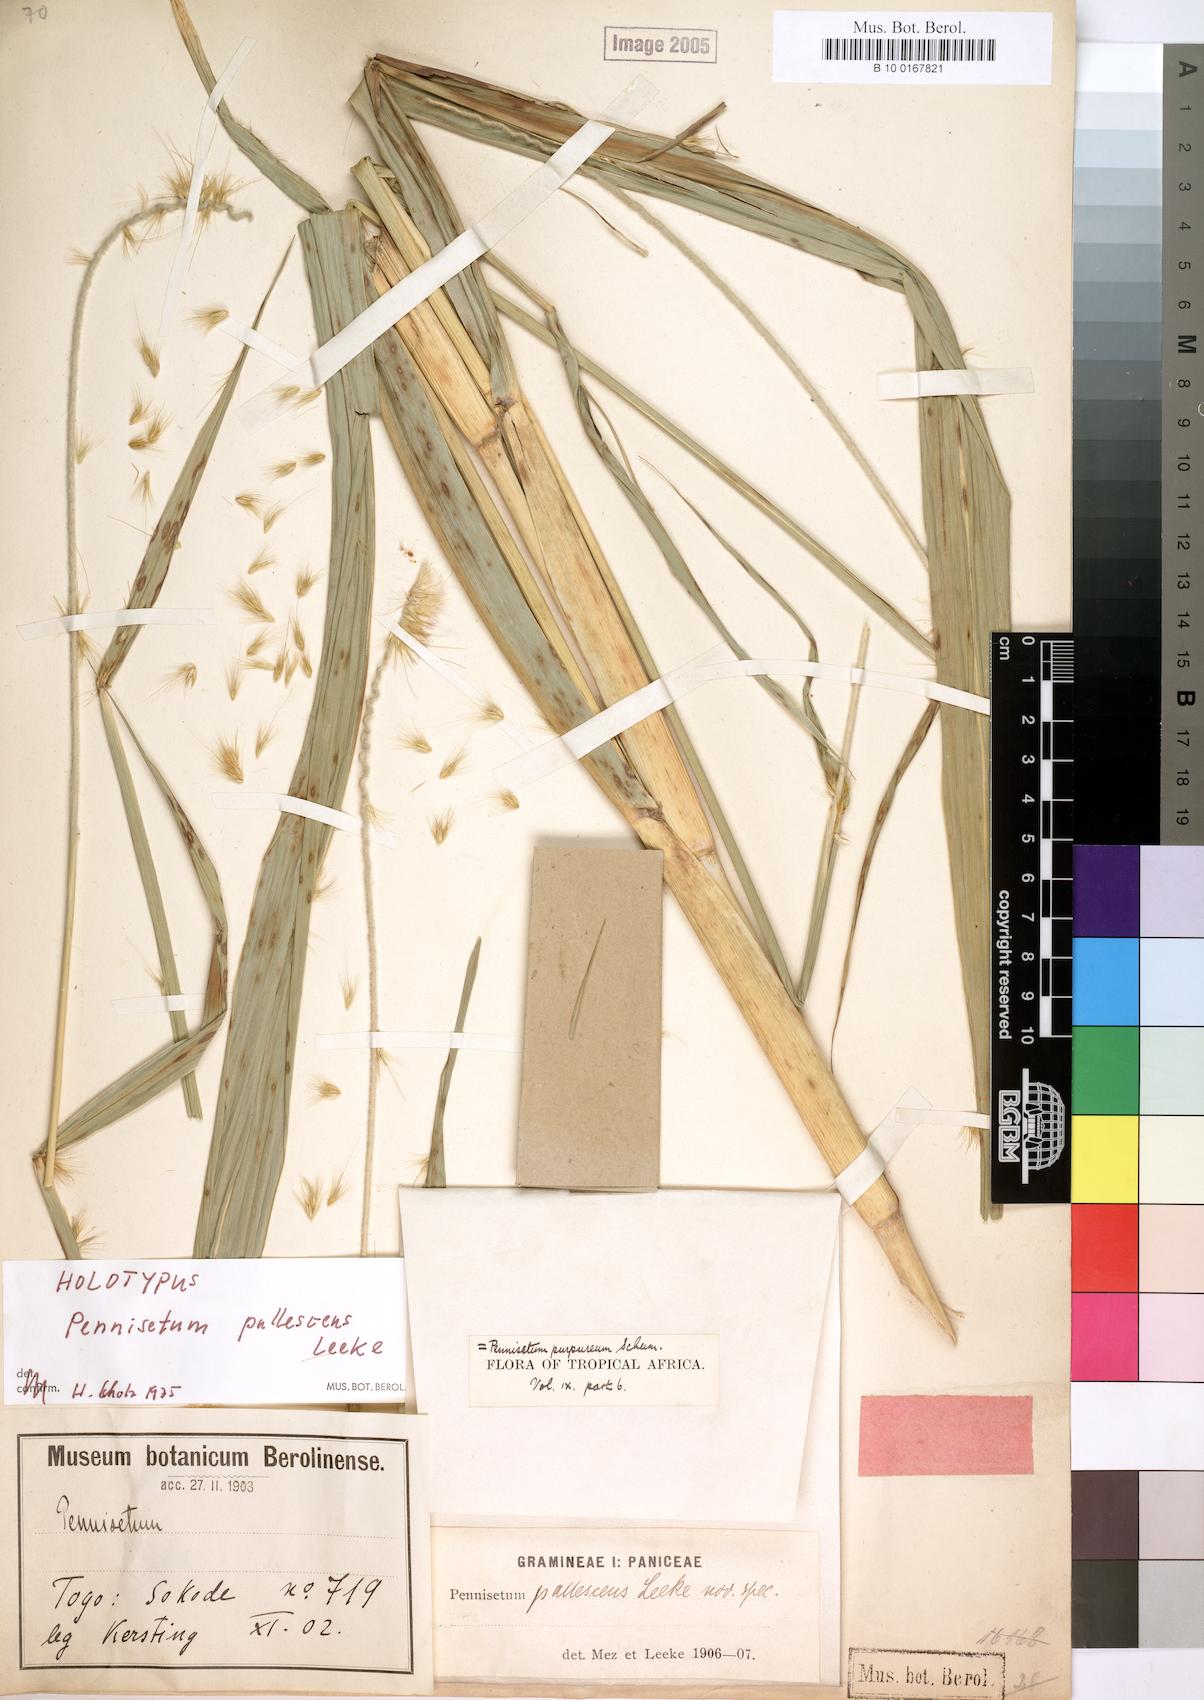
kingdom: Plantae
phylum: Tracheophyta
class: Liliopsida
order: Poales
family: Poaceae
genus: Cenchrus
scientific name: Cenchrus purpureus
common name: Elephant grass
